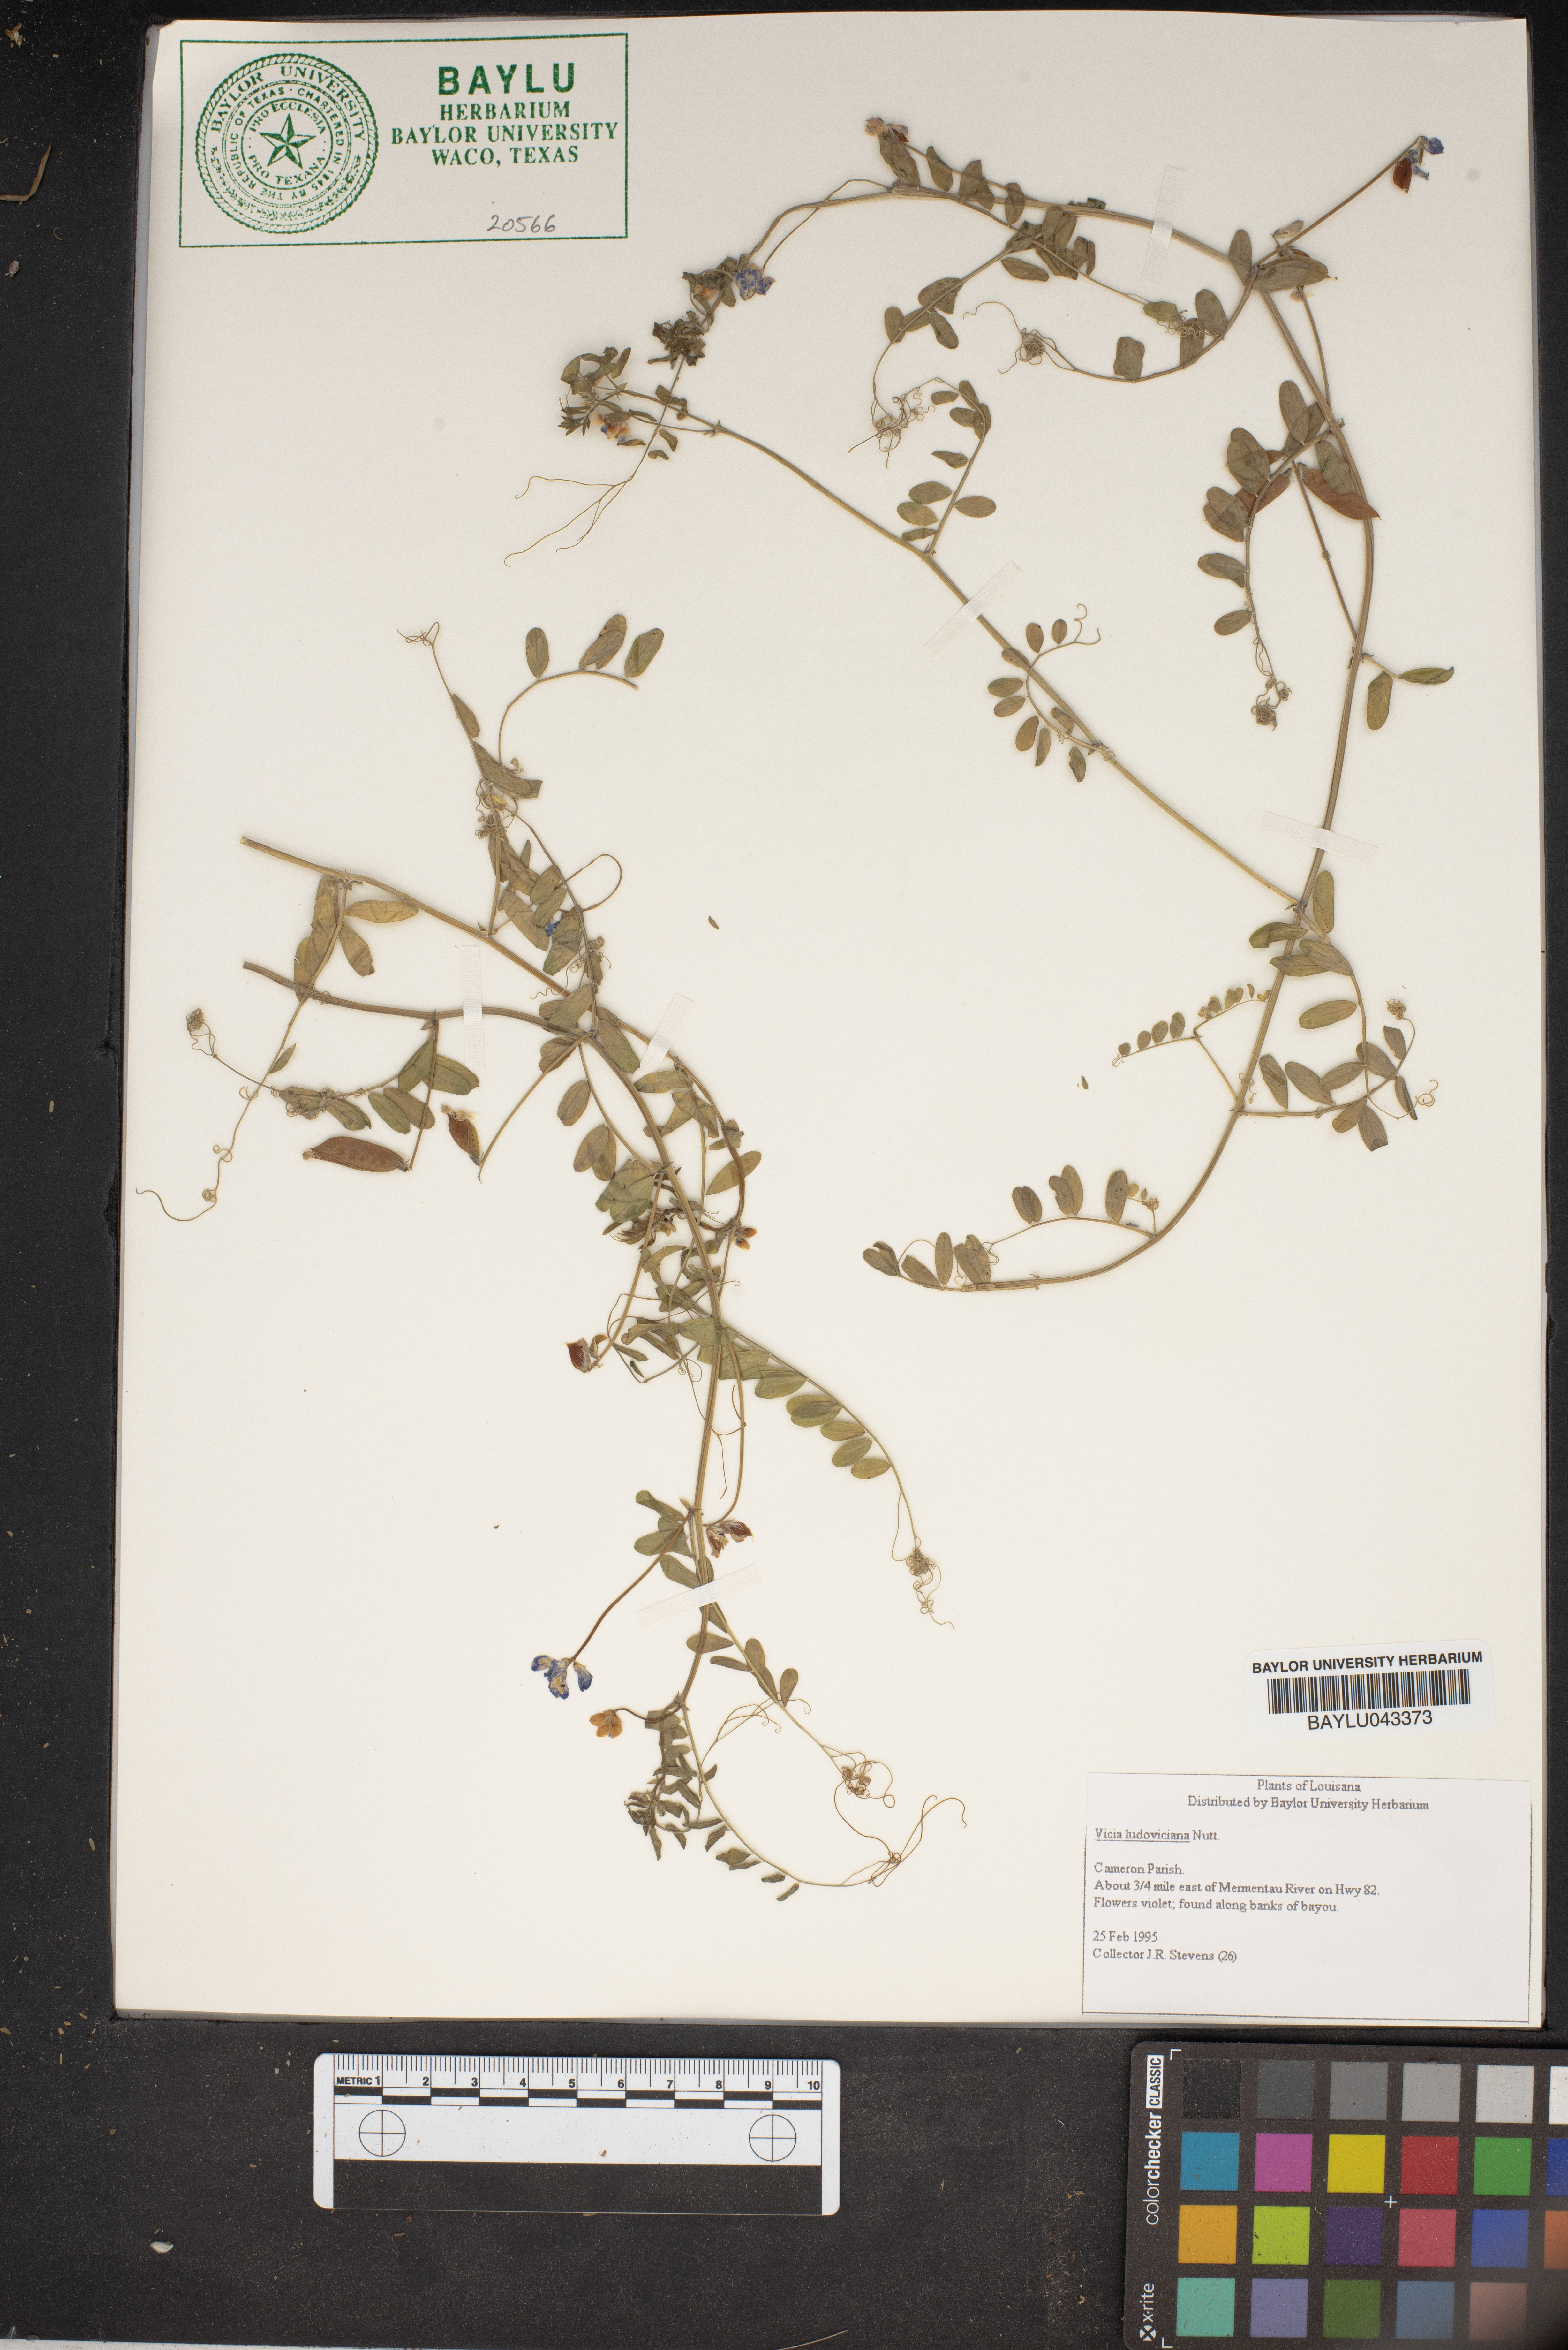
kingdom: Plantae
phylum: Tracheophyta
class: Magnoliopsida
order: Fabales
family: Fabaceae
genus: Vicia
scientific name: Vicia ludoviciana
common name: Louisiana vetch
